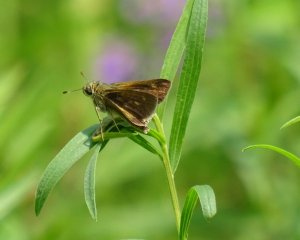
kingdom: Animalia
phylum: Arthropoda
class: Insecta
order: Lepidoptera
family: Hesperiidae
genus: Euphyes
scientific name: Euphyes vestris
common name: Dun Skipper
